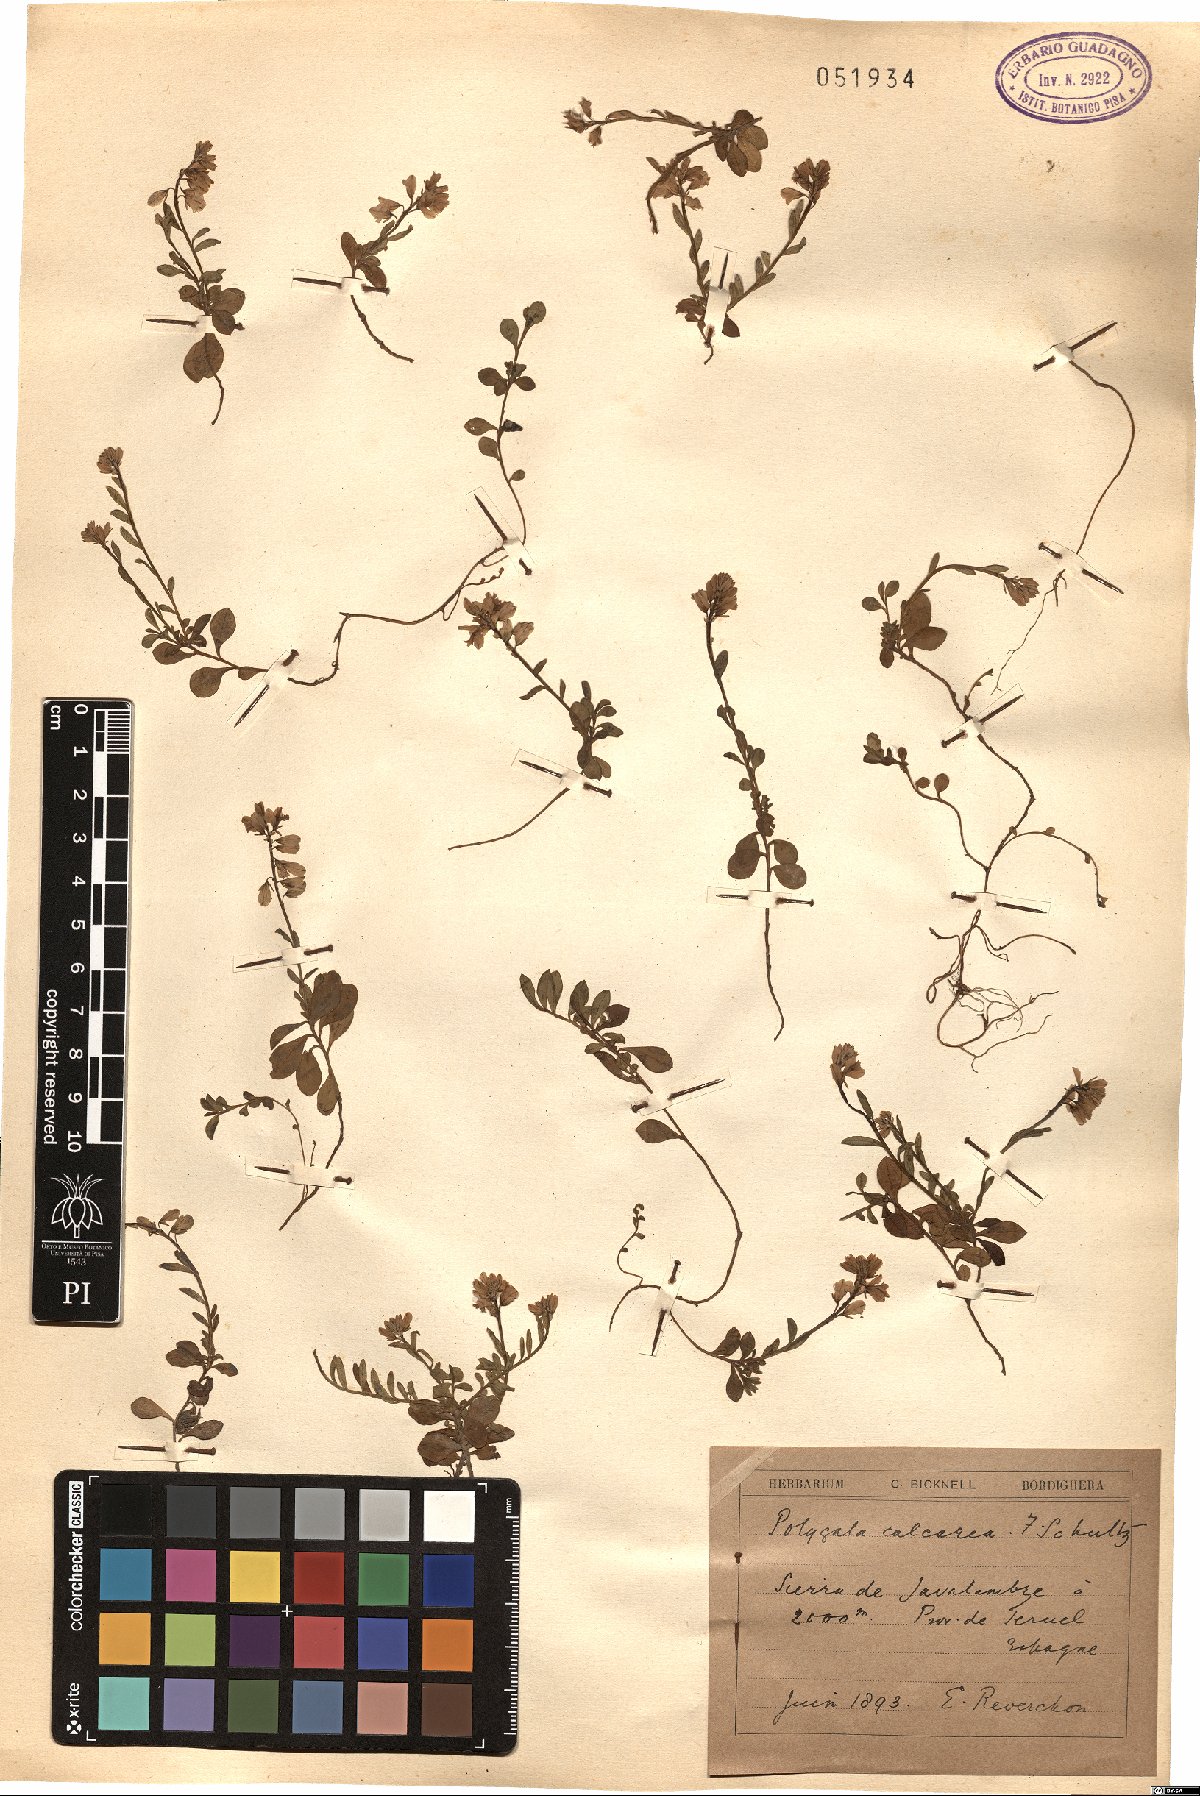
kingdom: Plantae
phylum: Tracheophyta
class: Magnoliopsida
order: Fabales
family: Polygalaceae
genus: Polygala
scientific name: Polygala calcarea
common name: Chalk milkwort
